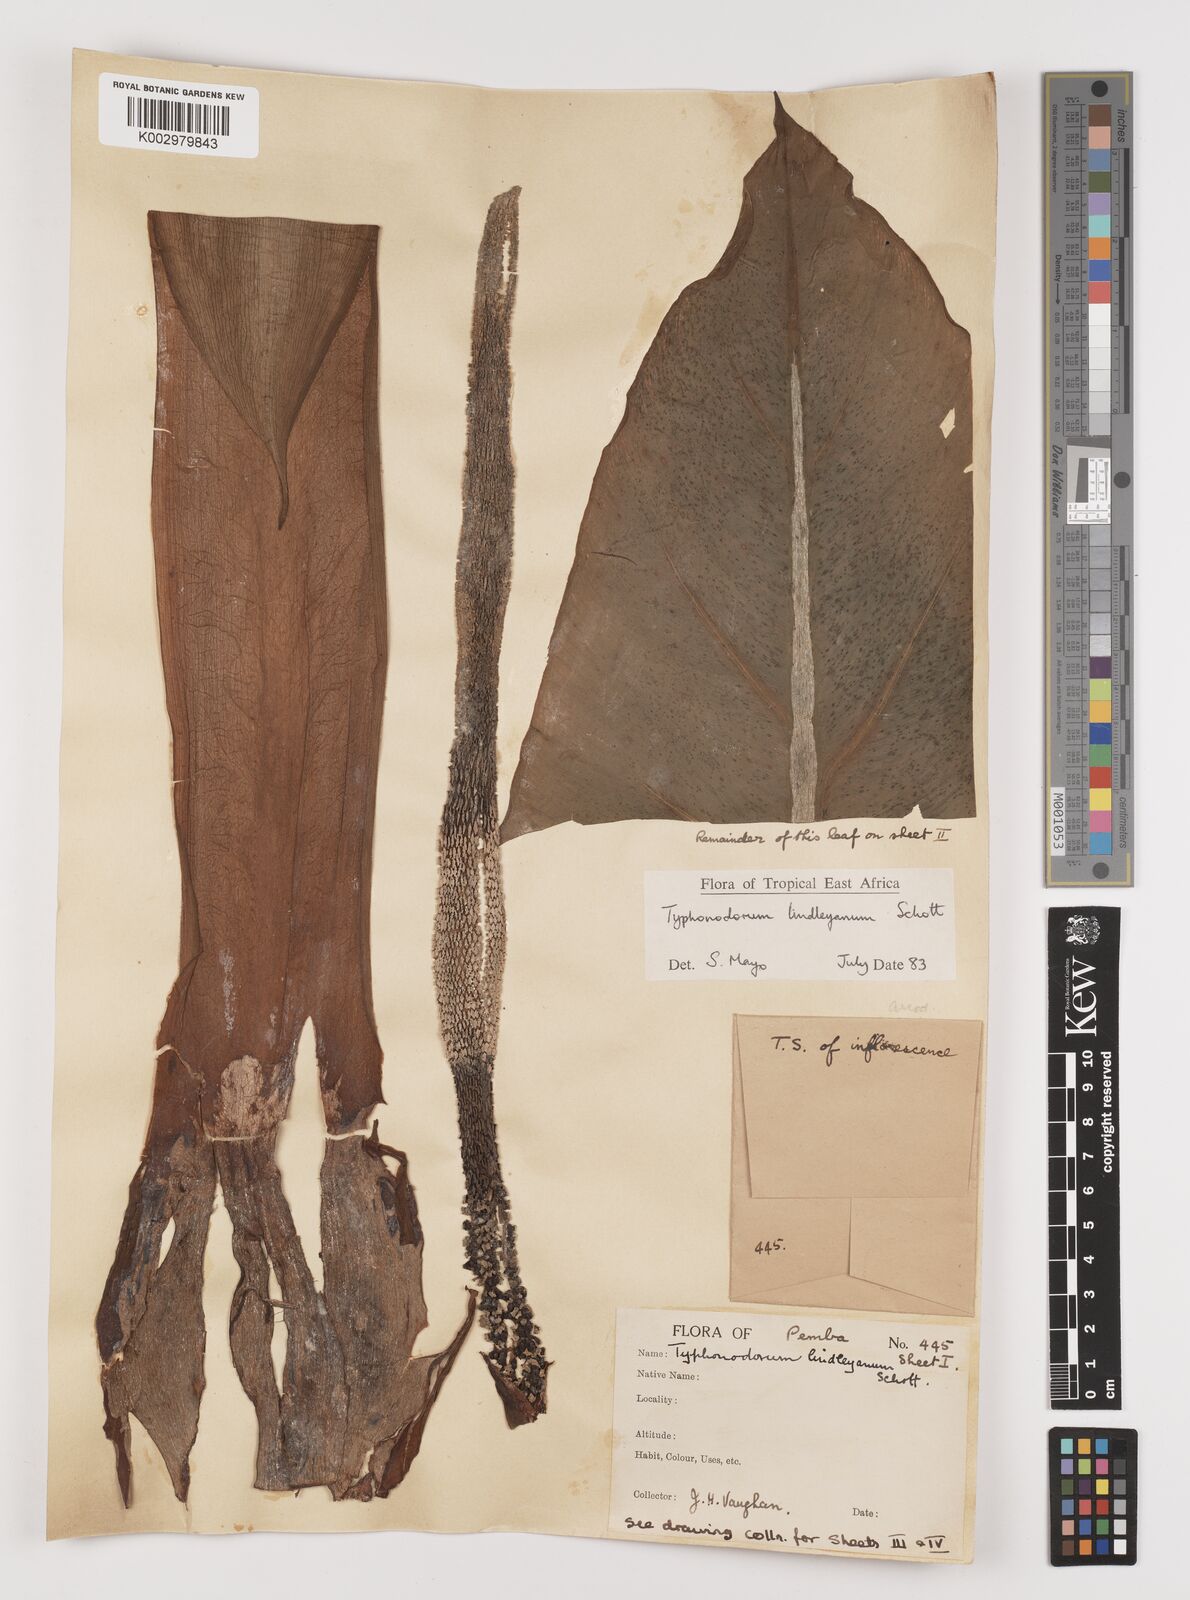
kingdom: Plantae
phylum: Tracheophyta
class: Liliopsida
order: Alismatales
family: Araceae
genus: Typhonodorum
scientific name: Typhonodorum lindleyanum
